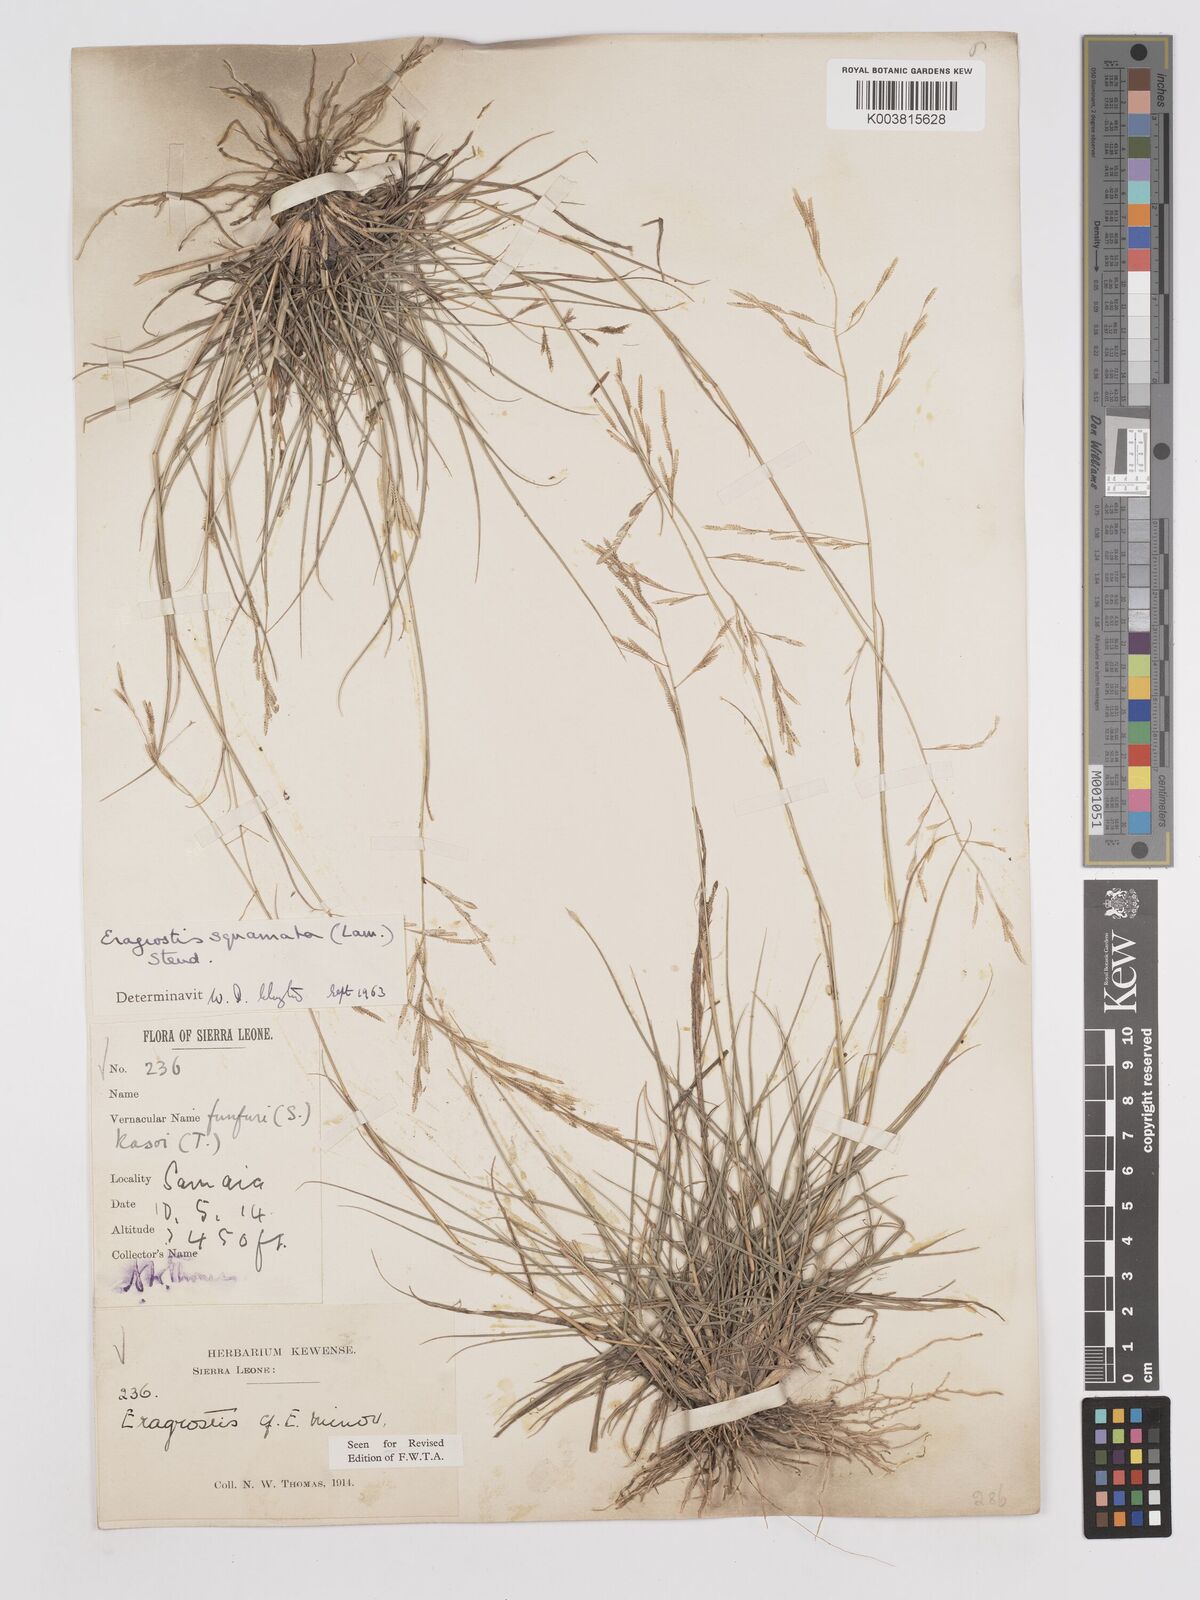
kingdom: Plantae
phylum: Tracheophyta
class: Liliopsida
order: Poales
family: Poaceae
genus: Eragrostis
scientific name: Eragrostis squamata
